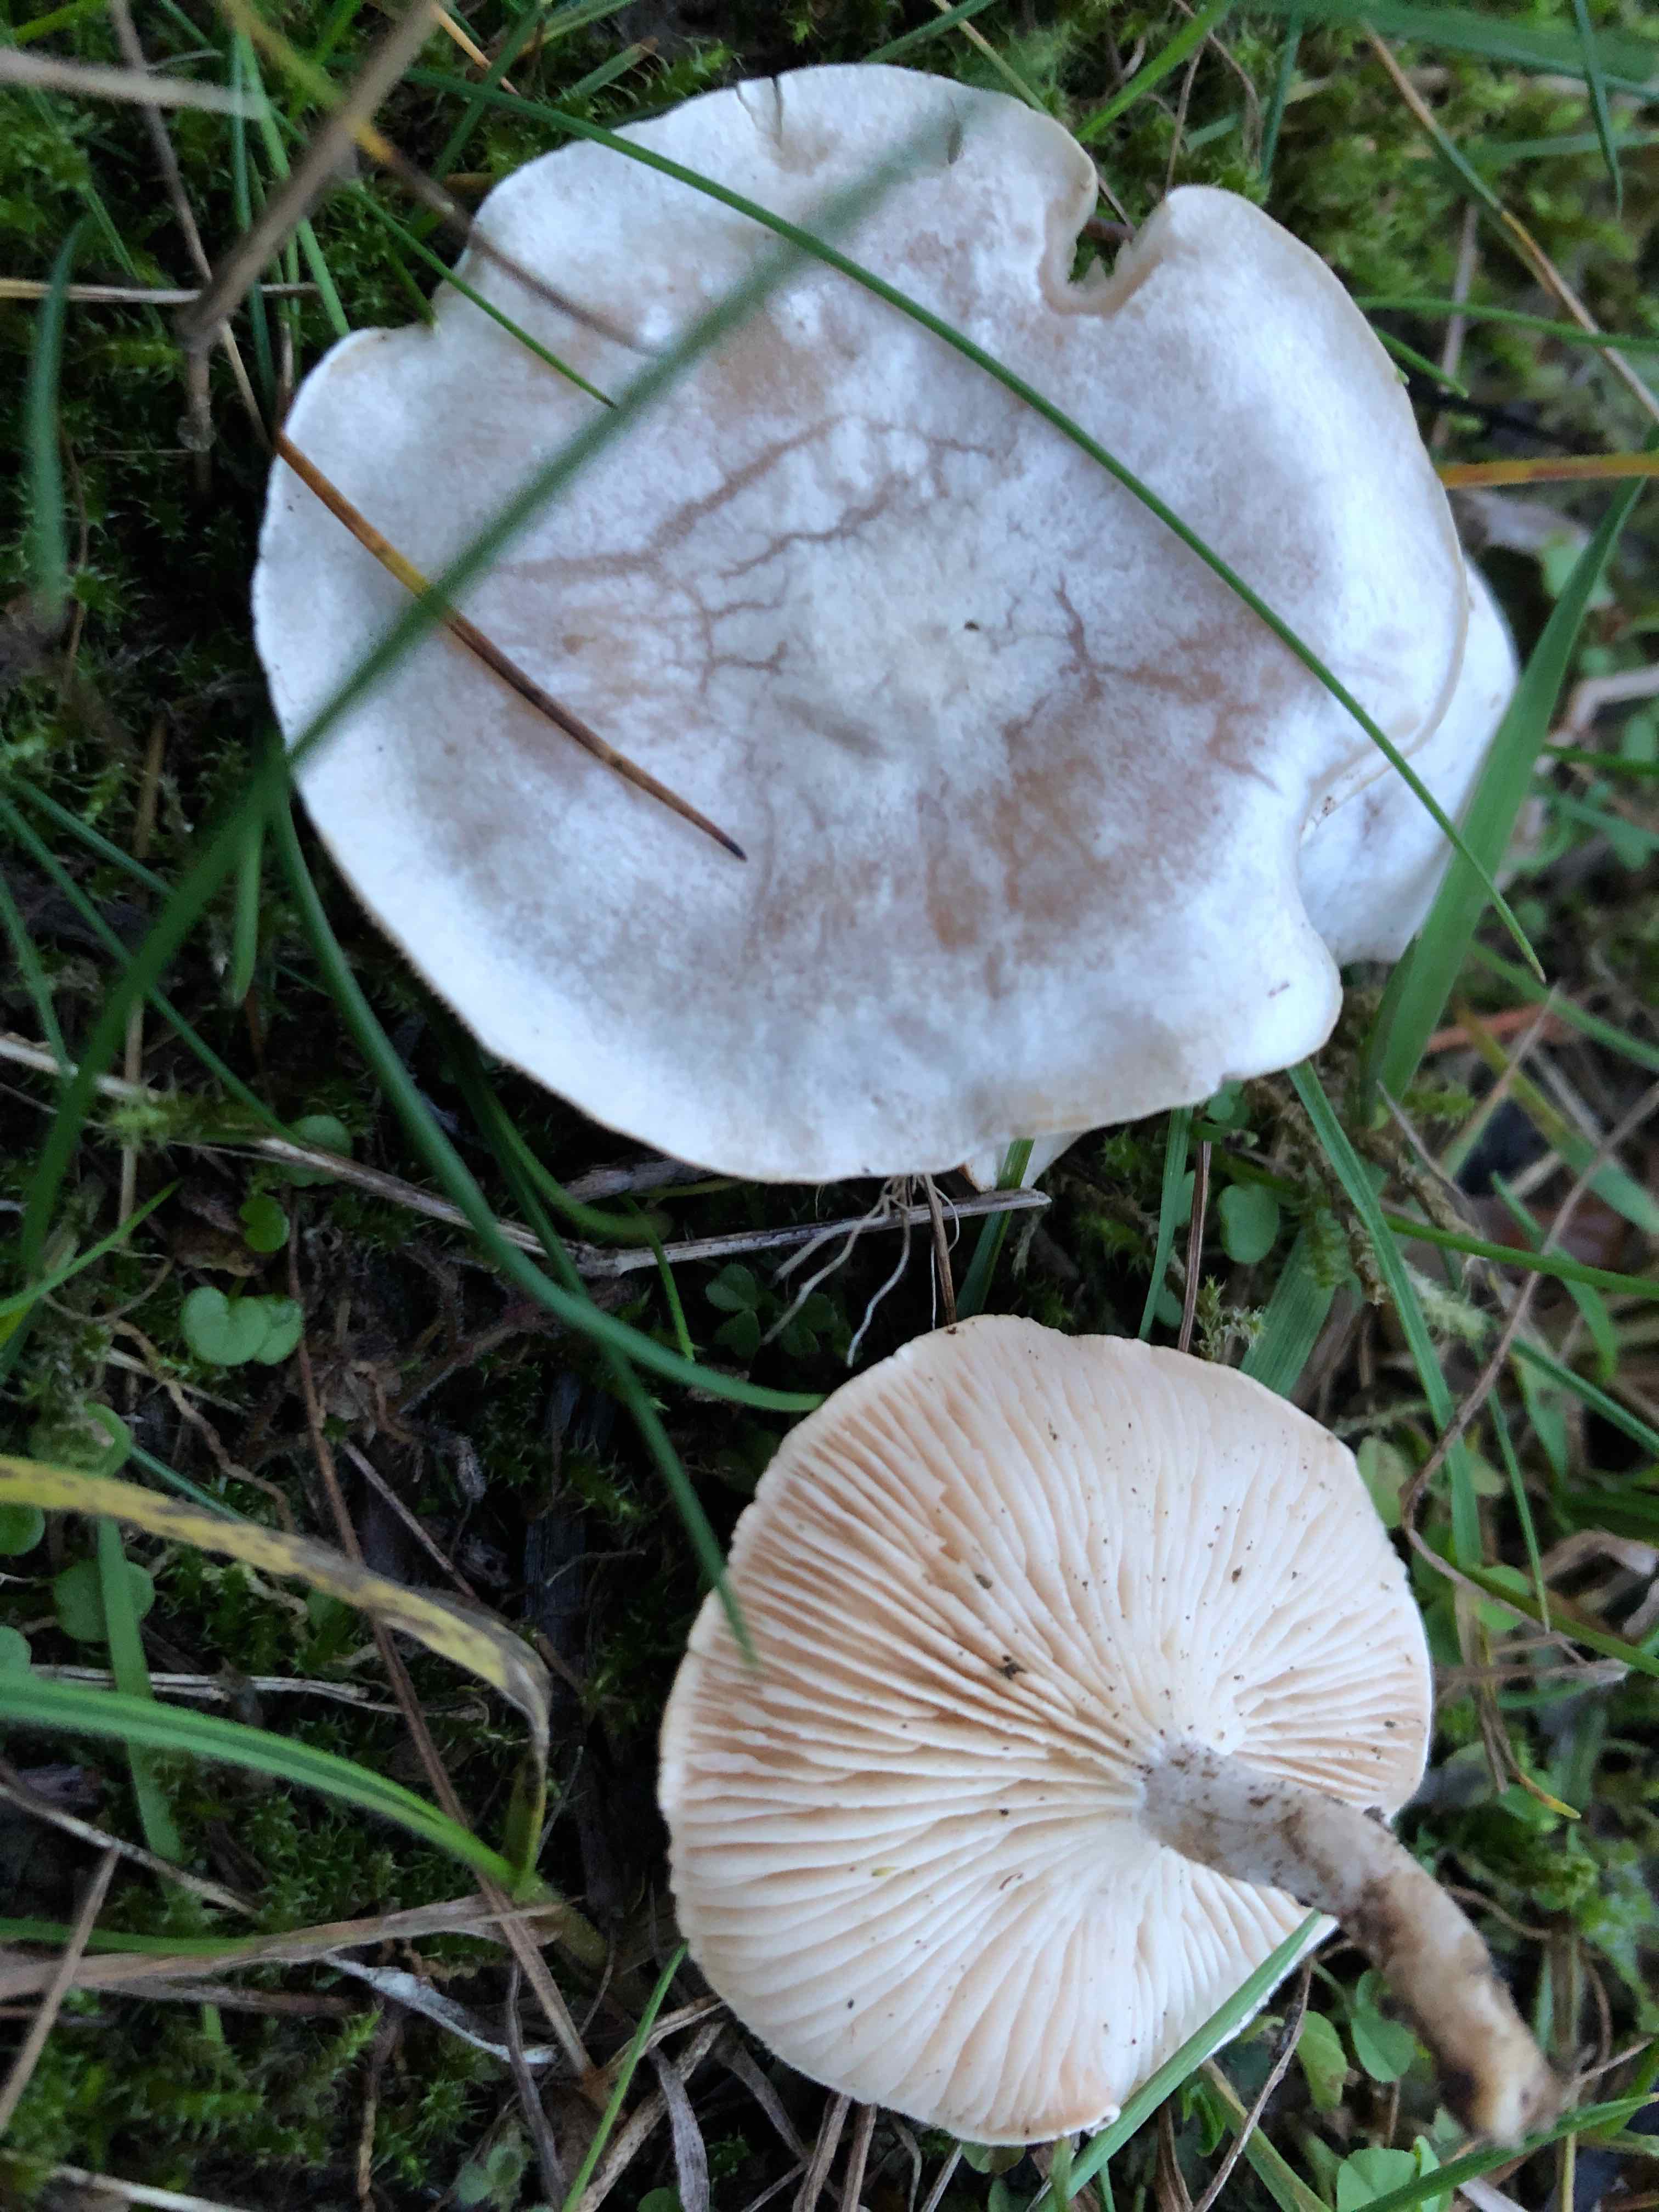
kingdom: Fungi
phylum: Basidiomycota
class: Agaricomycetes
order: Agaricales
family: Tricholomataceae
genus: Clitocybe
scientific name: Clitocybe rivulosa
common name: eng-tragthat
